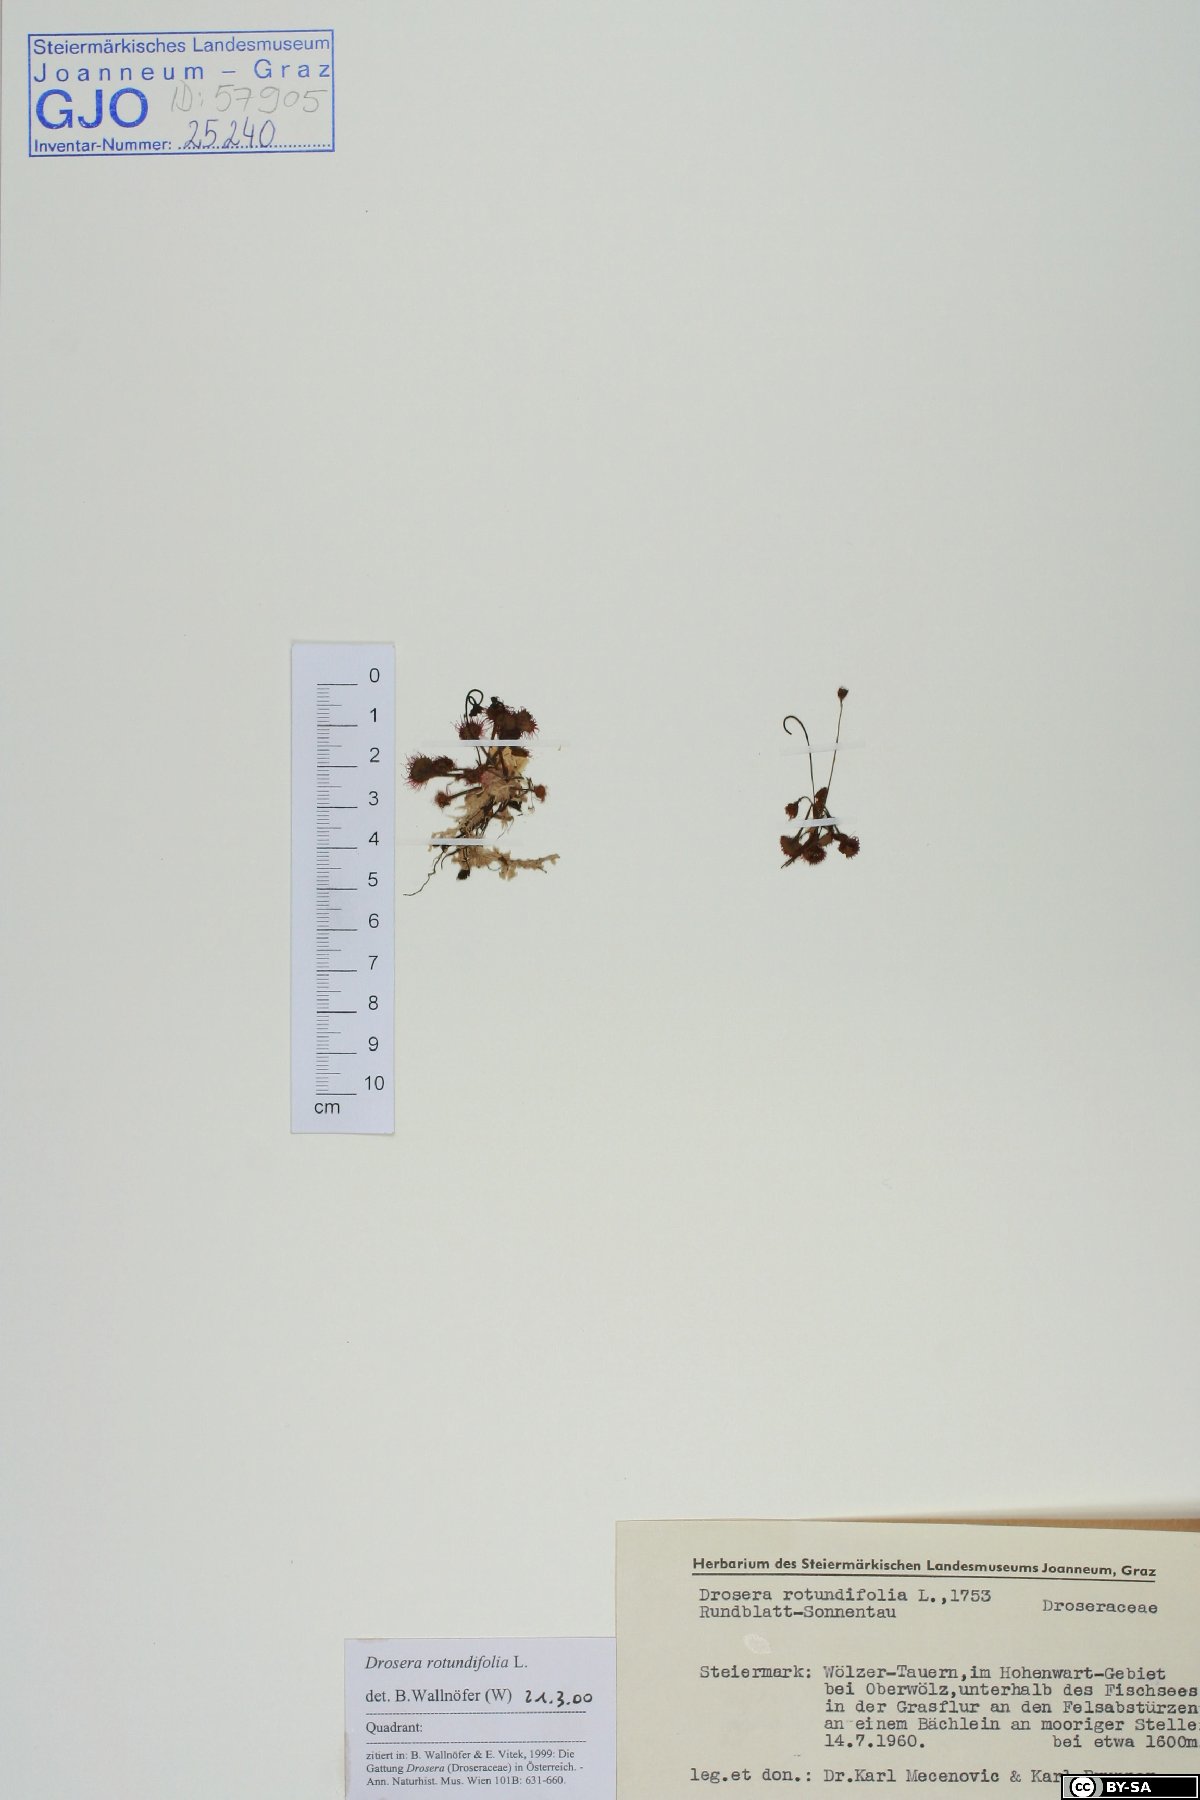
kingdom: Plantae
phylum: Tracheophyta
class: Magnoliopsida
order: Caryophyllales
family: Droseraceae
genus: Drosera
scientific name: Drosera rotundifolia
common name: Round-leaved sundew
